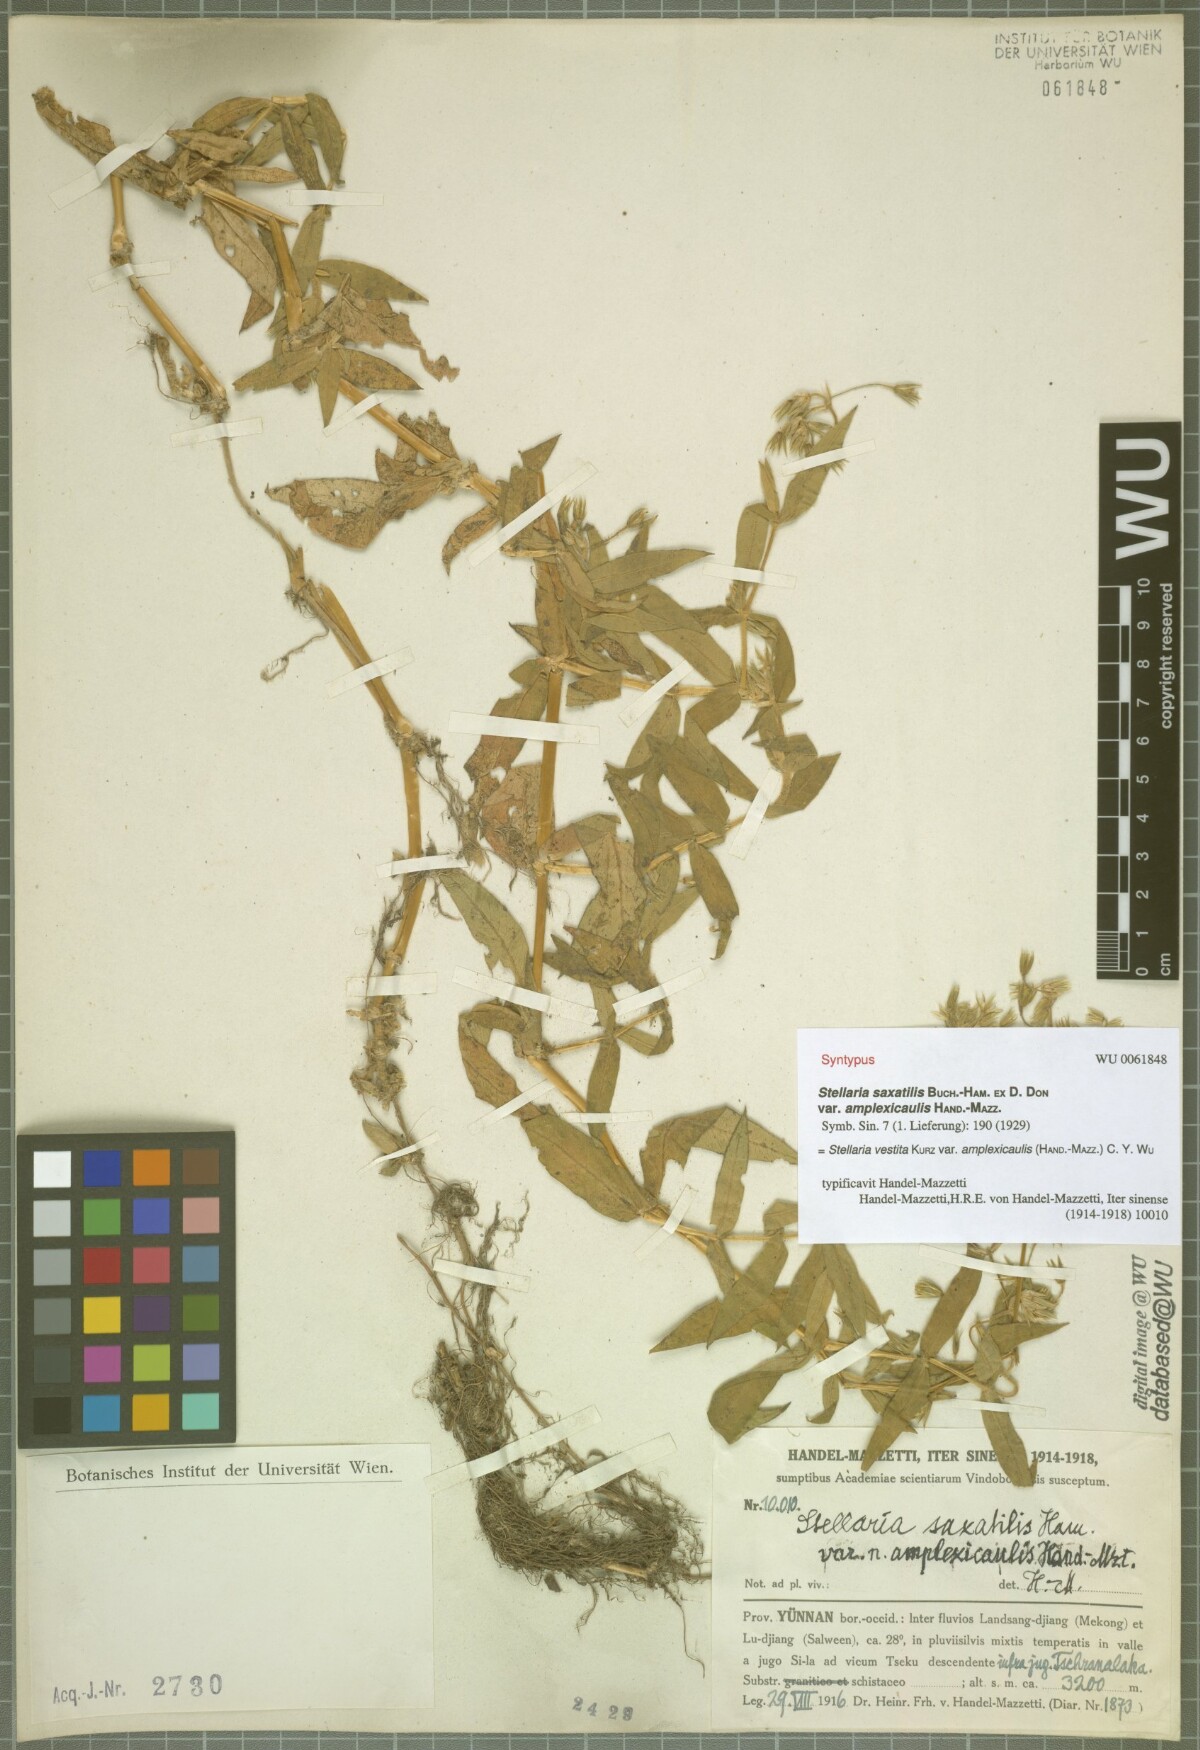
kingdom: Plantae
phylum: Tracheophyta
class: Magnoliopsida
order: Caryophyllales
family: Caryophyllaceae
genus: Stellaria
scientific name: Stellaria amplexicaulis
